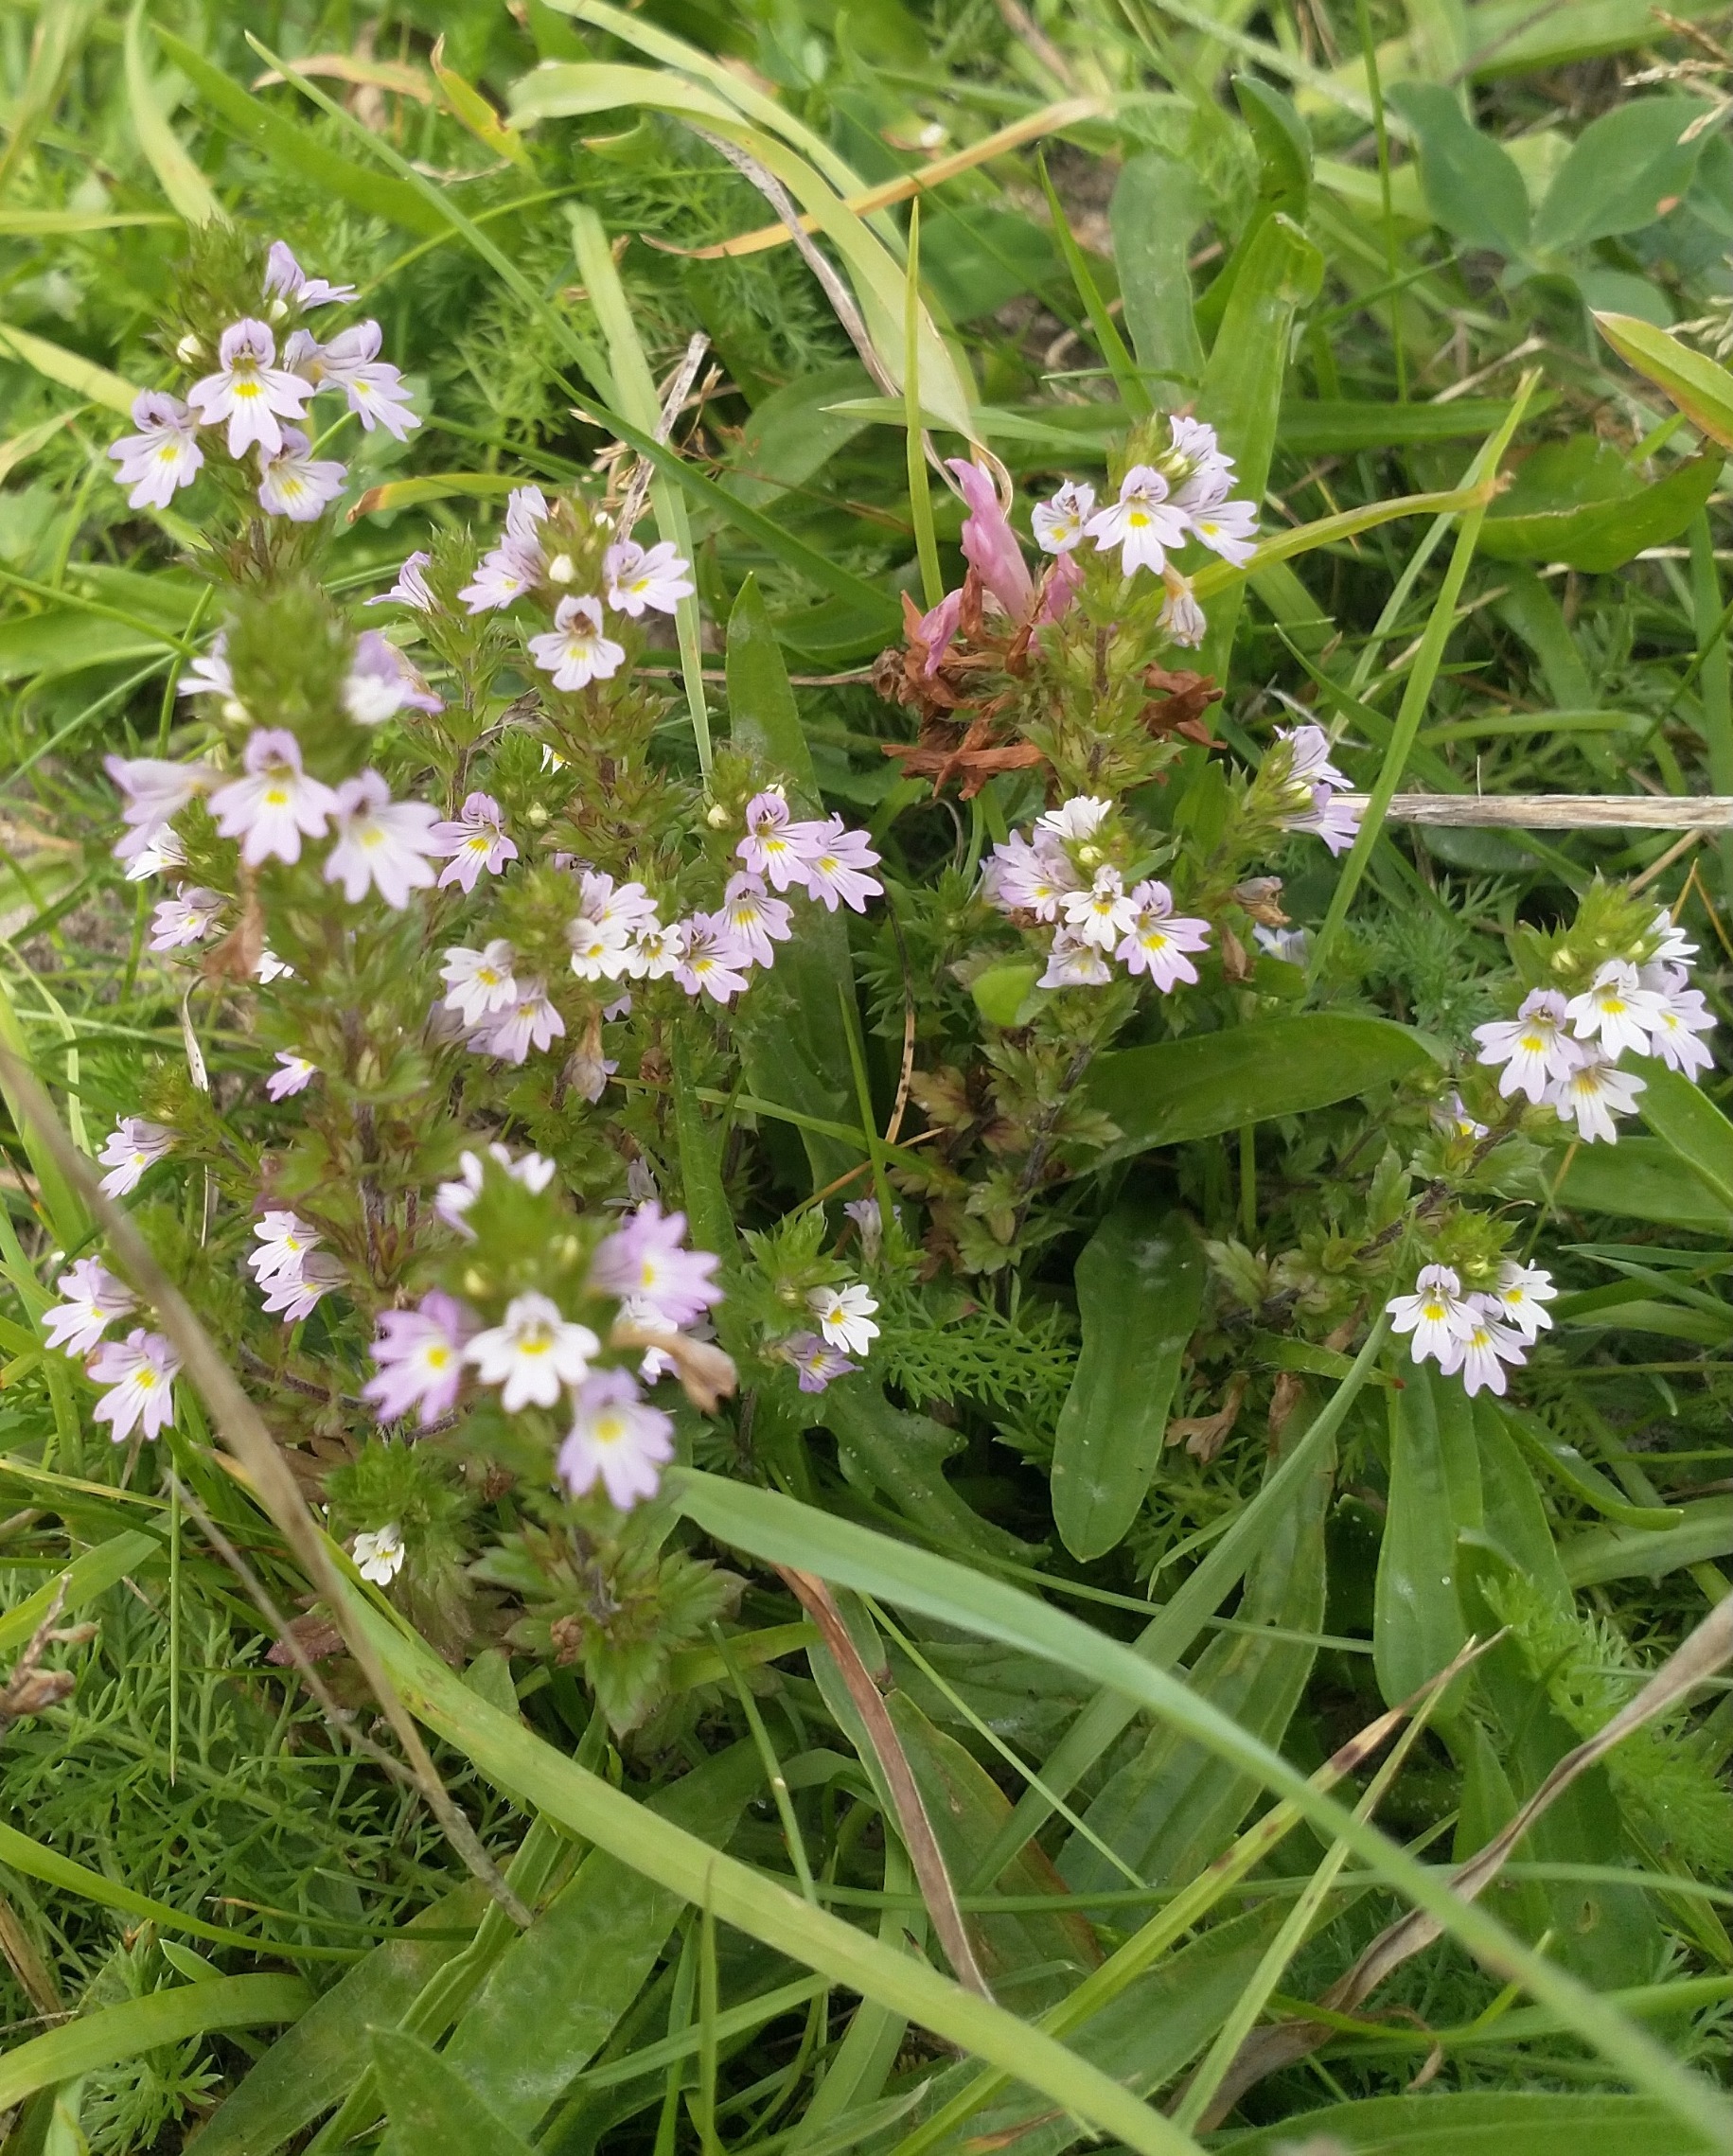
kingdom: Plantae
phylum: Tracheophyta
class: Magnoliopsida
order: Lamiales
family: Orobanchaceae
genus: Euphrasia
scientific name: Euphrasia stricta
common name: Spids øjentrøst
